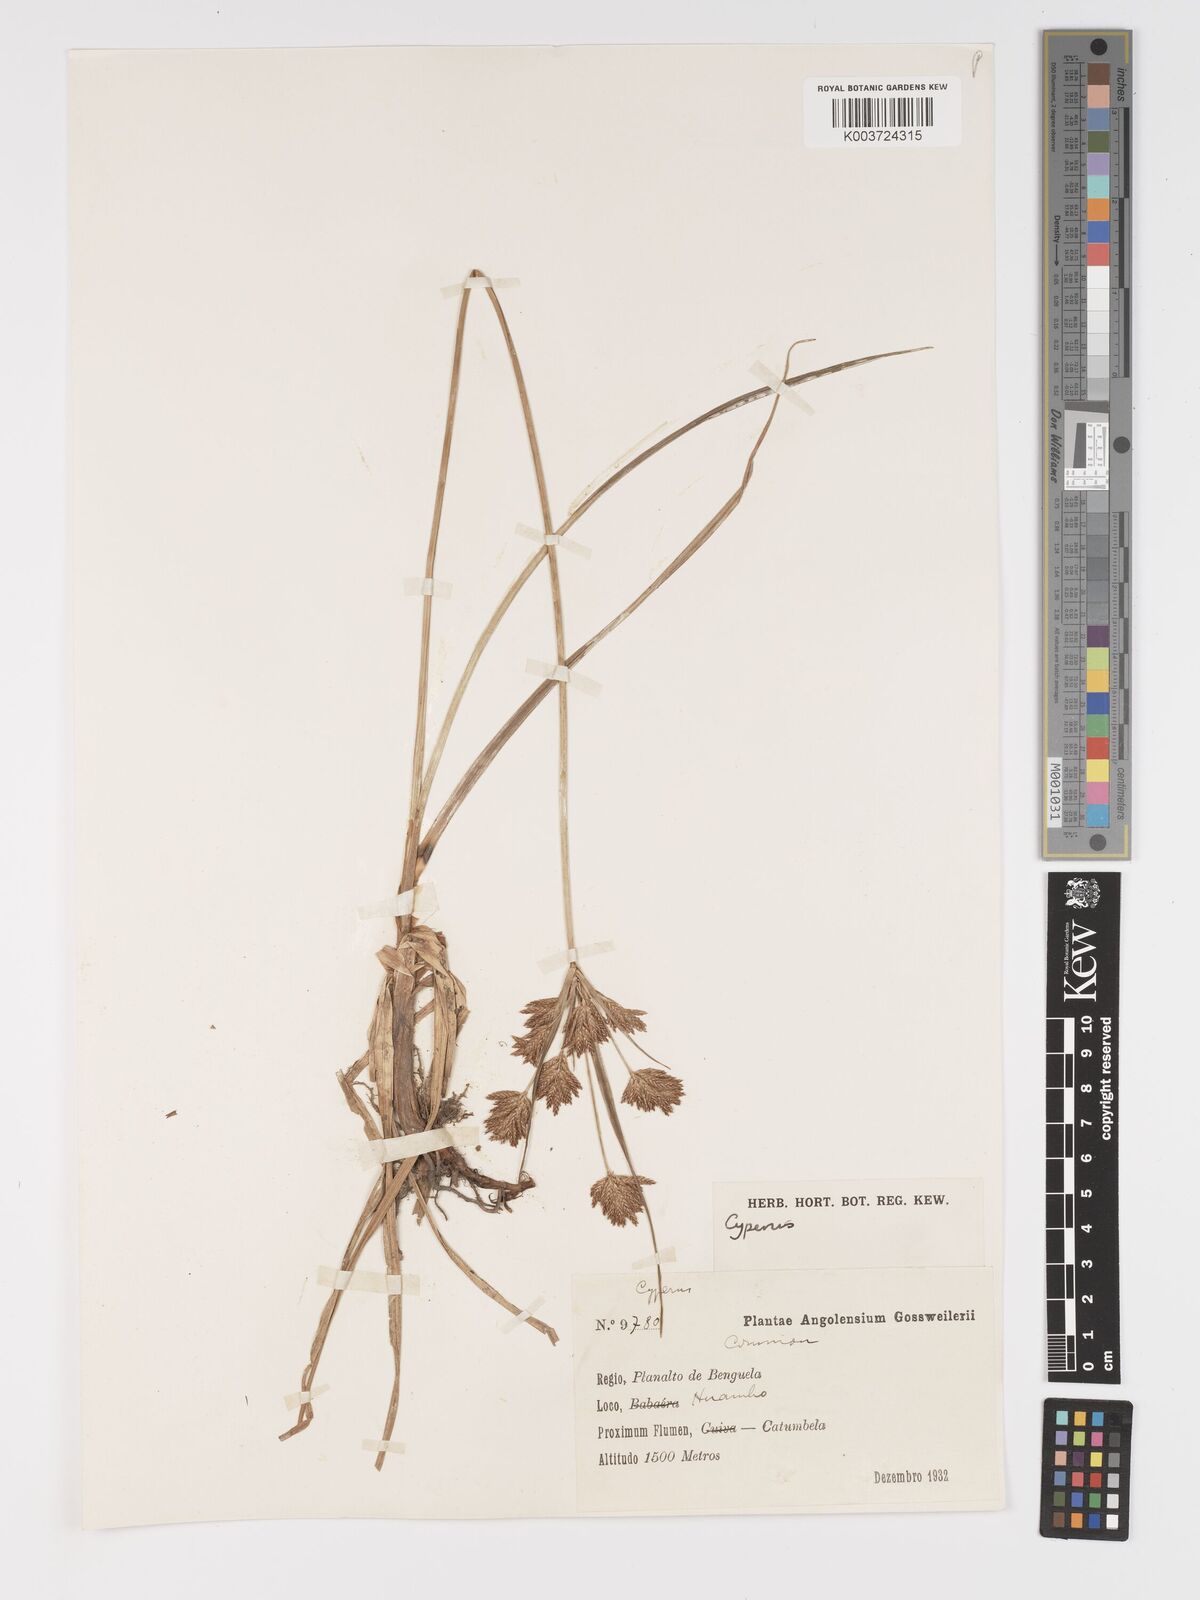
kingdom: Plantae
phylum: Tracheophyta
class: Liliopsida
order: Poales
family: Cyperaceae
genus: Cyperus
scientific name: Cyperus
